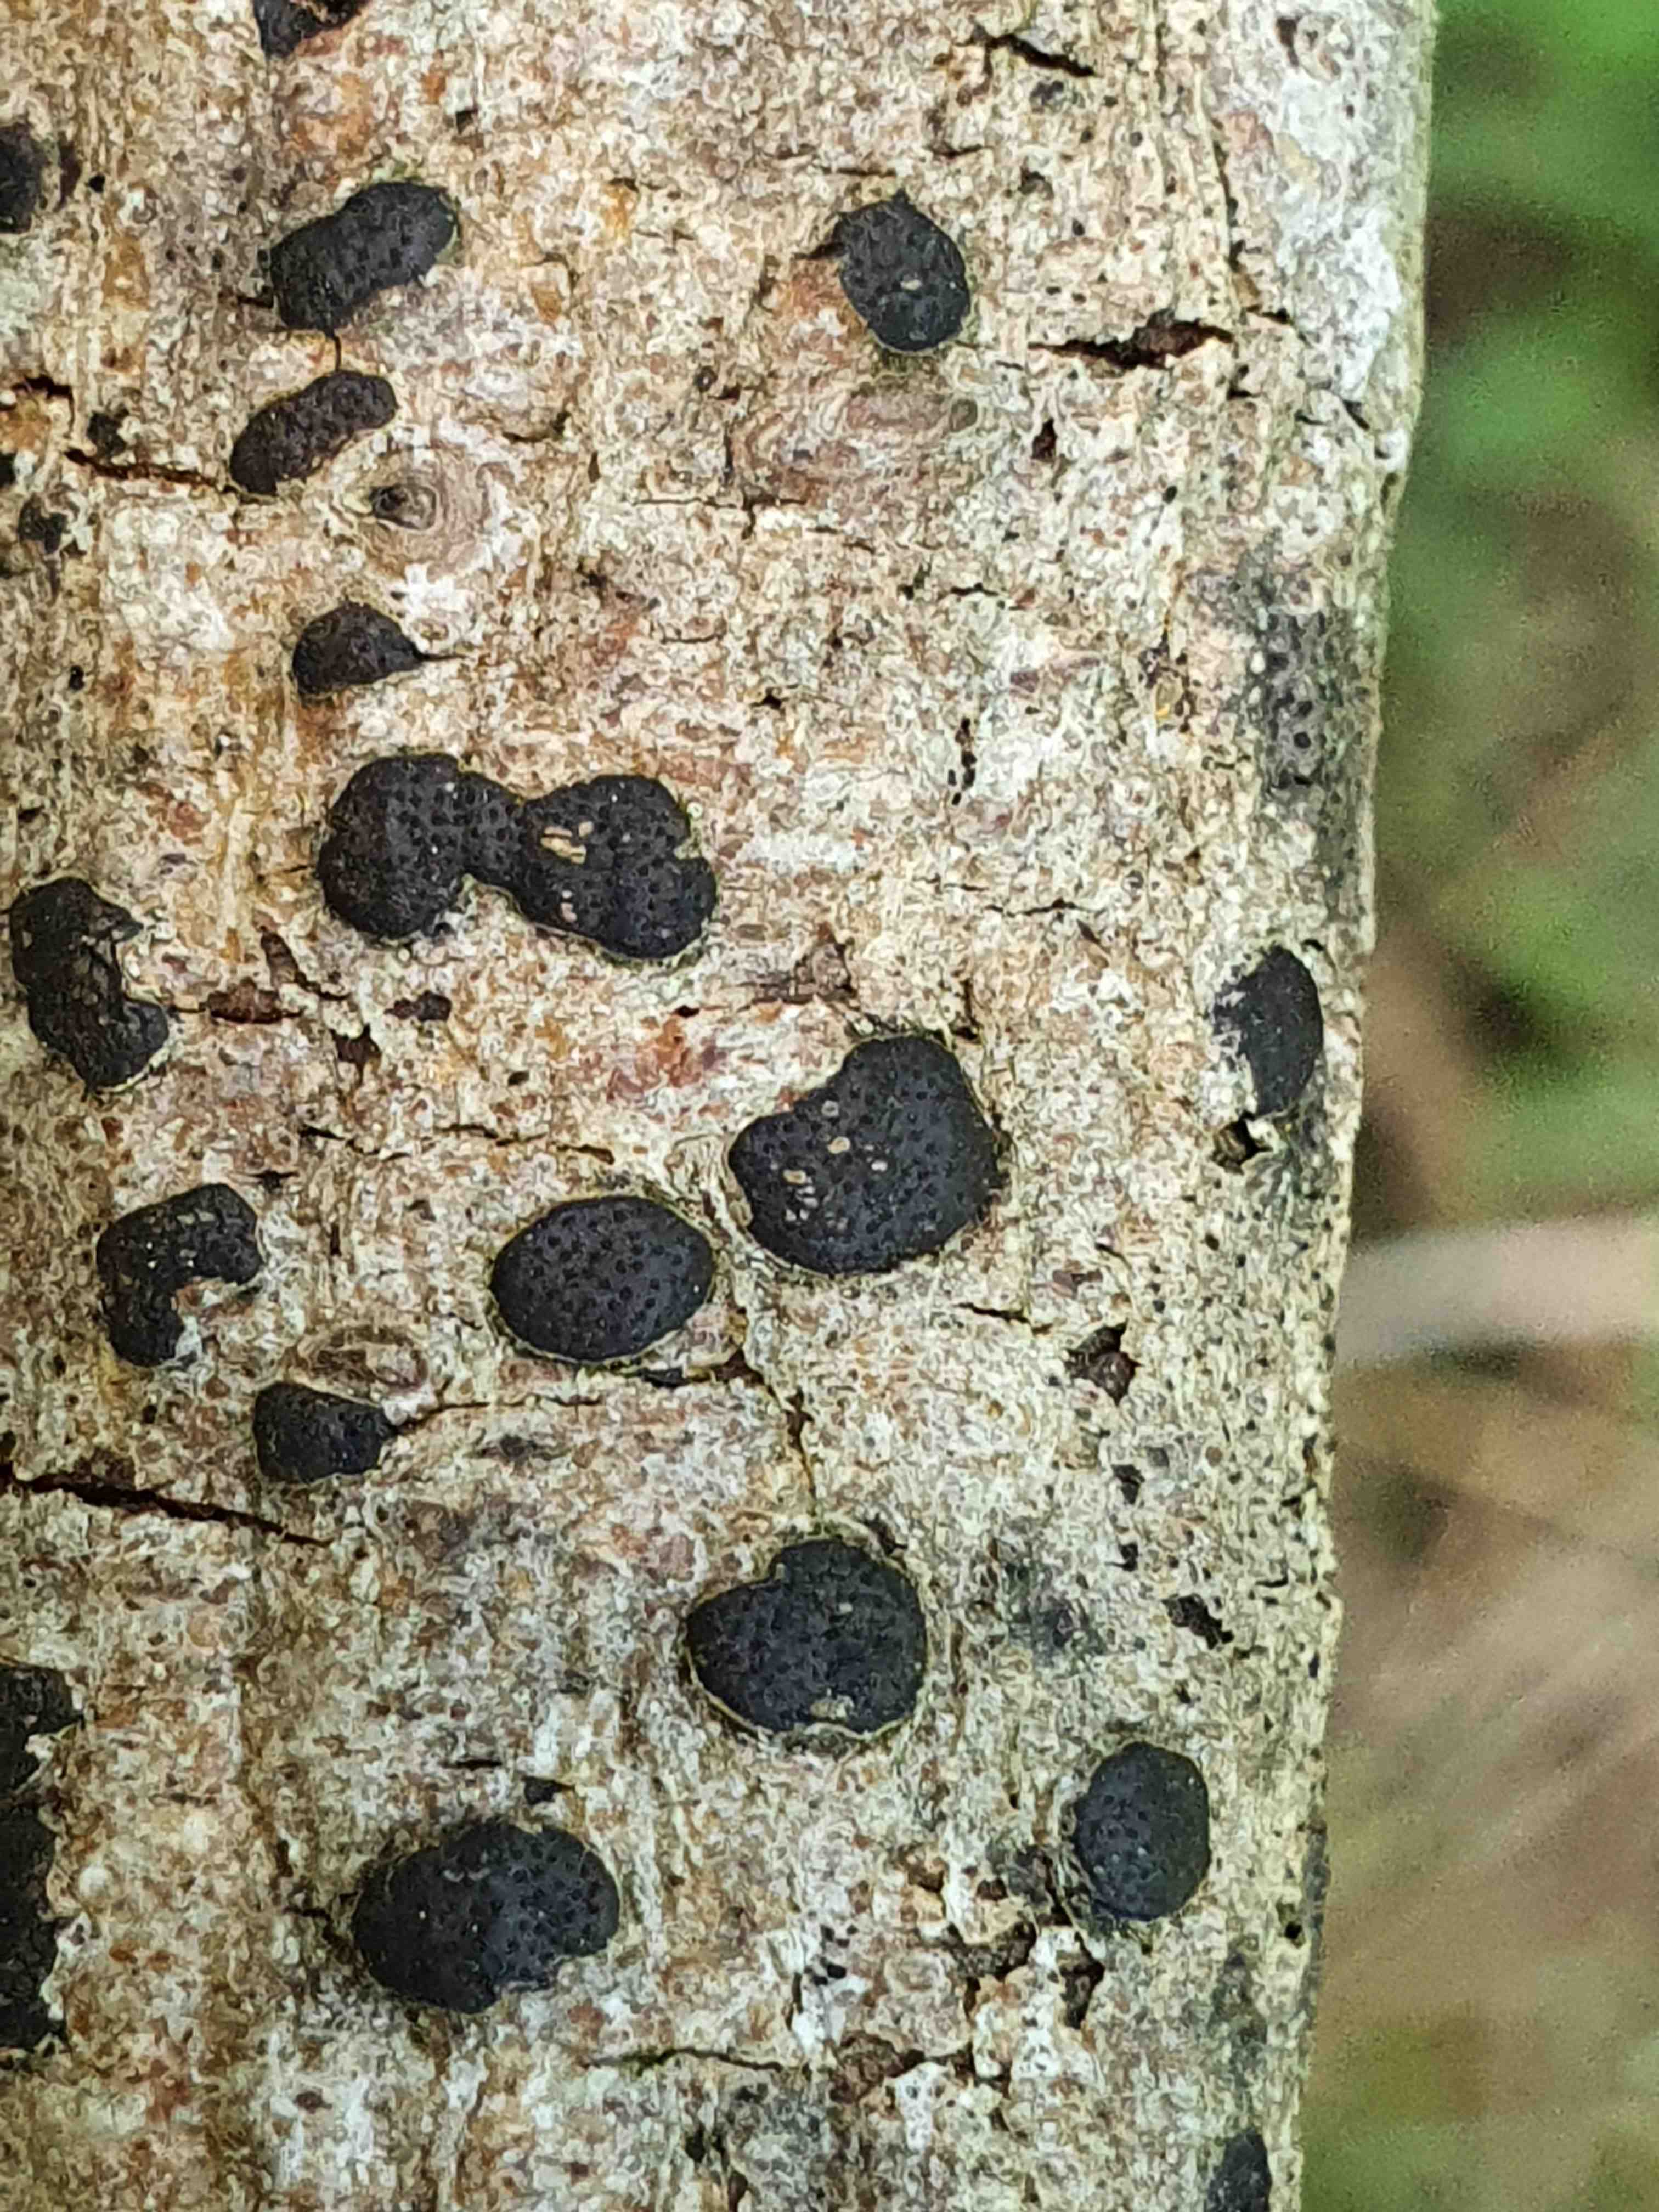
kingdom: Fungi
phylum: Ascomycota
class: Sordariomycetes
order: Xylariales
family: Diatrypaceae
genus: Diatrype
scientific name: Diatrype bullata
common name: pile-kulskorpe
